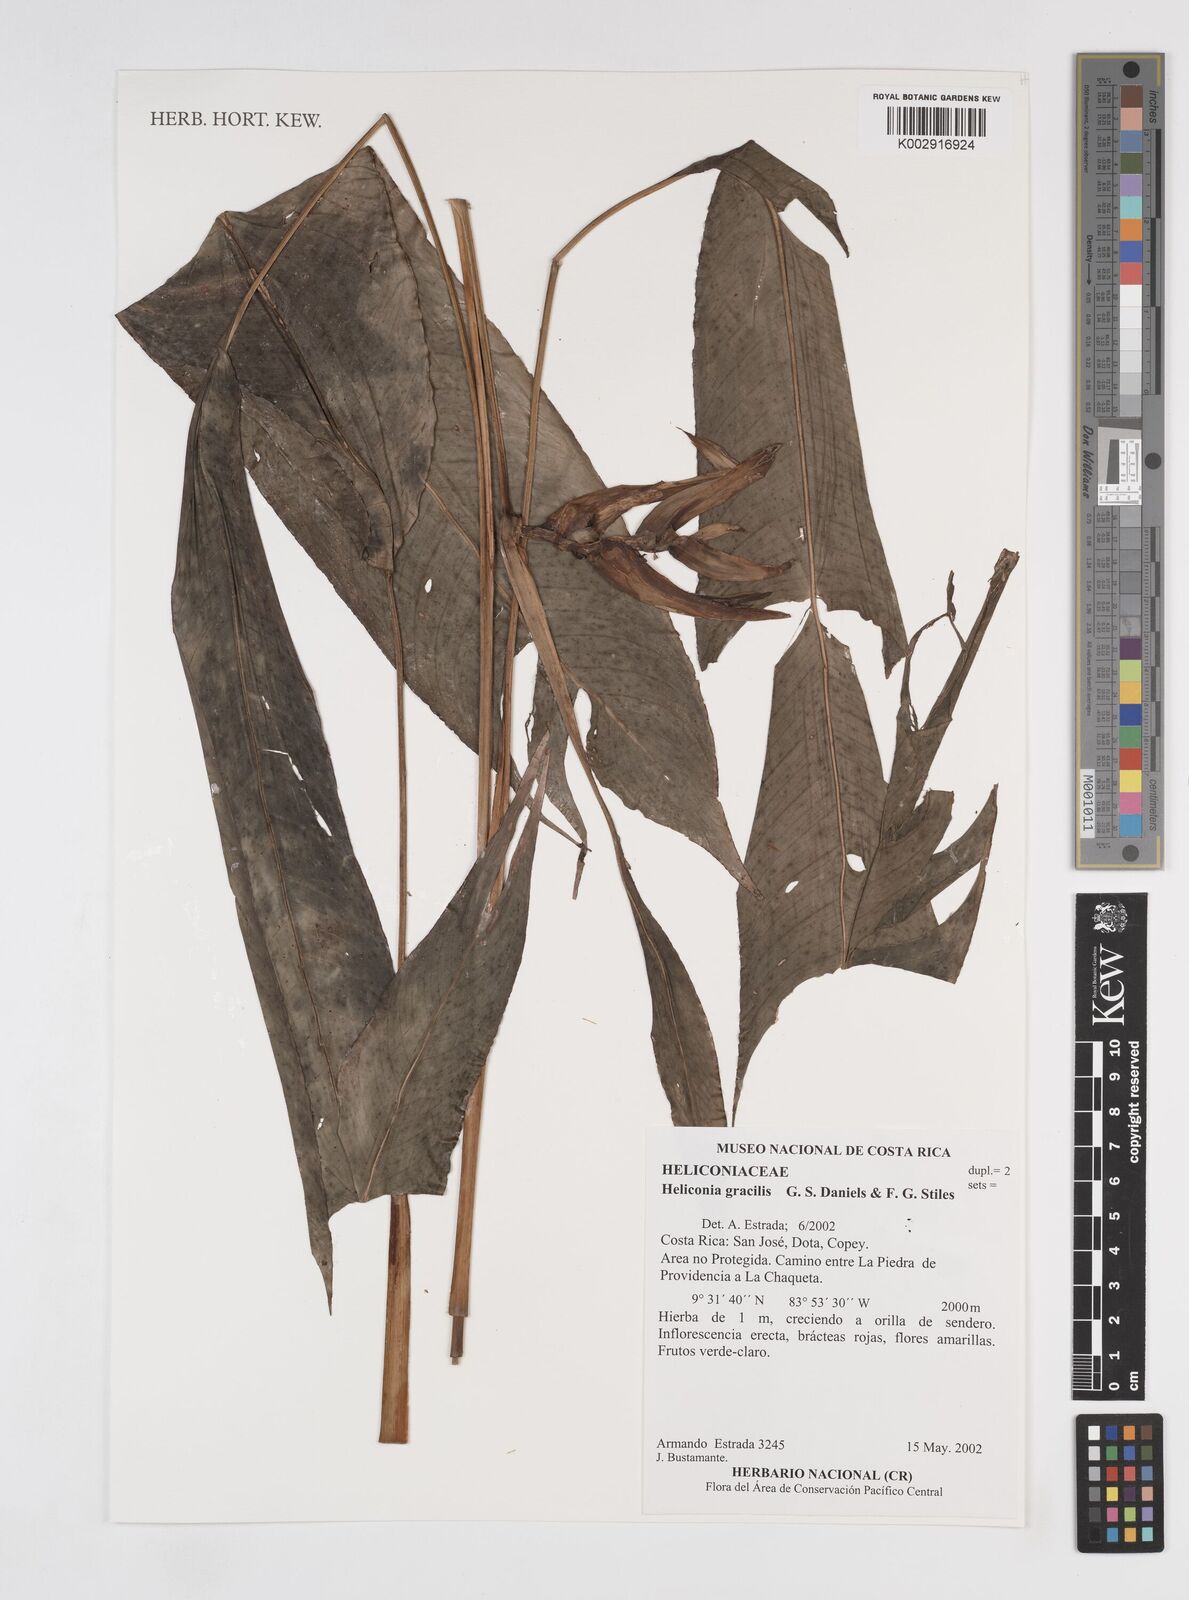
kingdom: Plantae
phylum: Tracheophyta
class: Liliopsida
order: Zingiberales
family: Heliconiaceae
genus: Heliconia
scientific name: Heliconia gracilis
